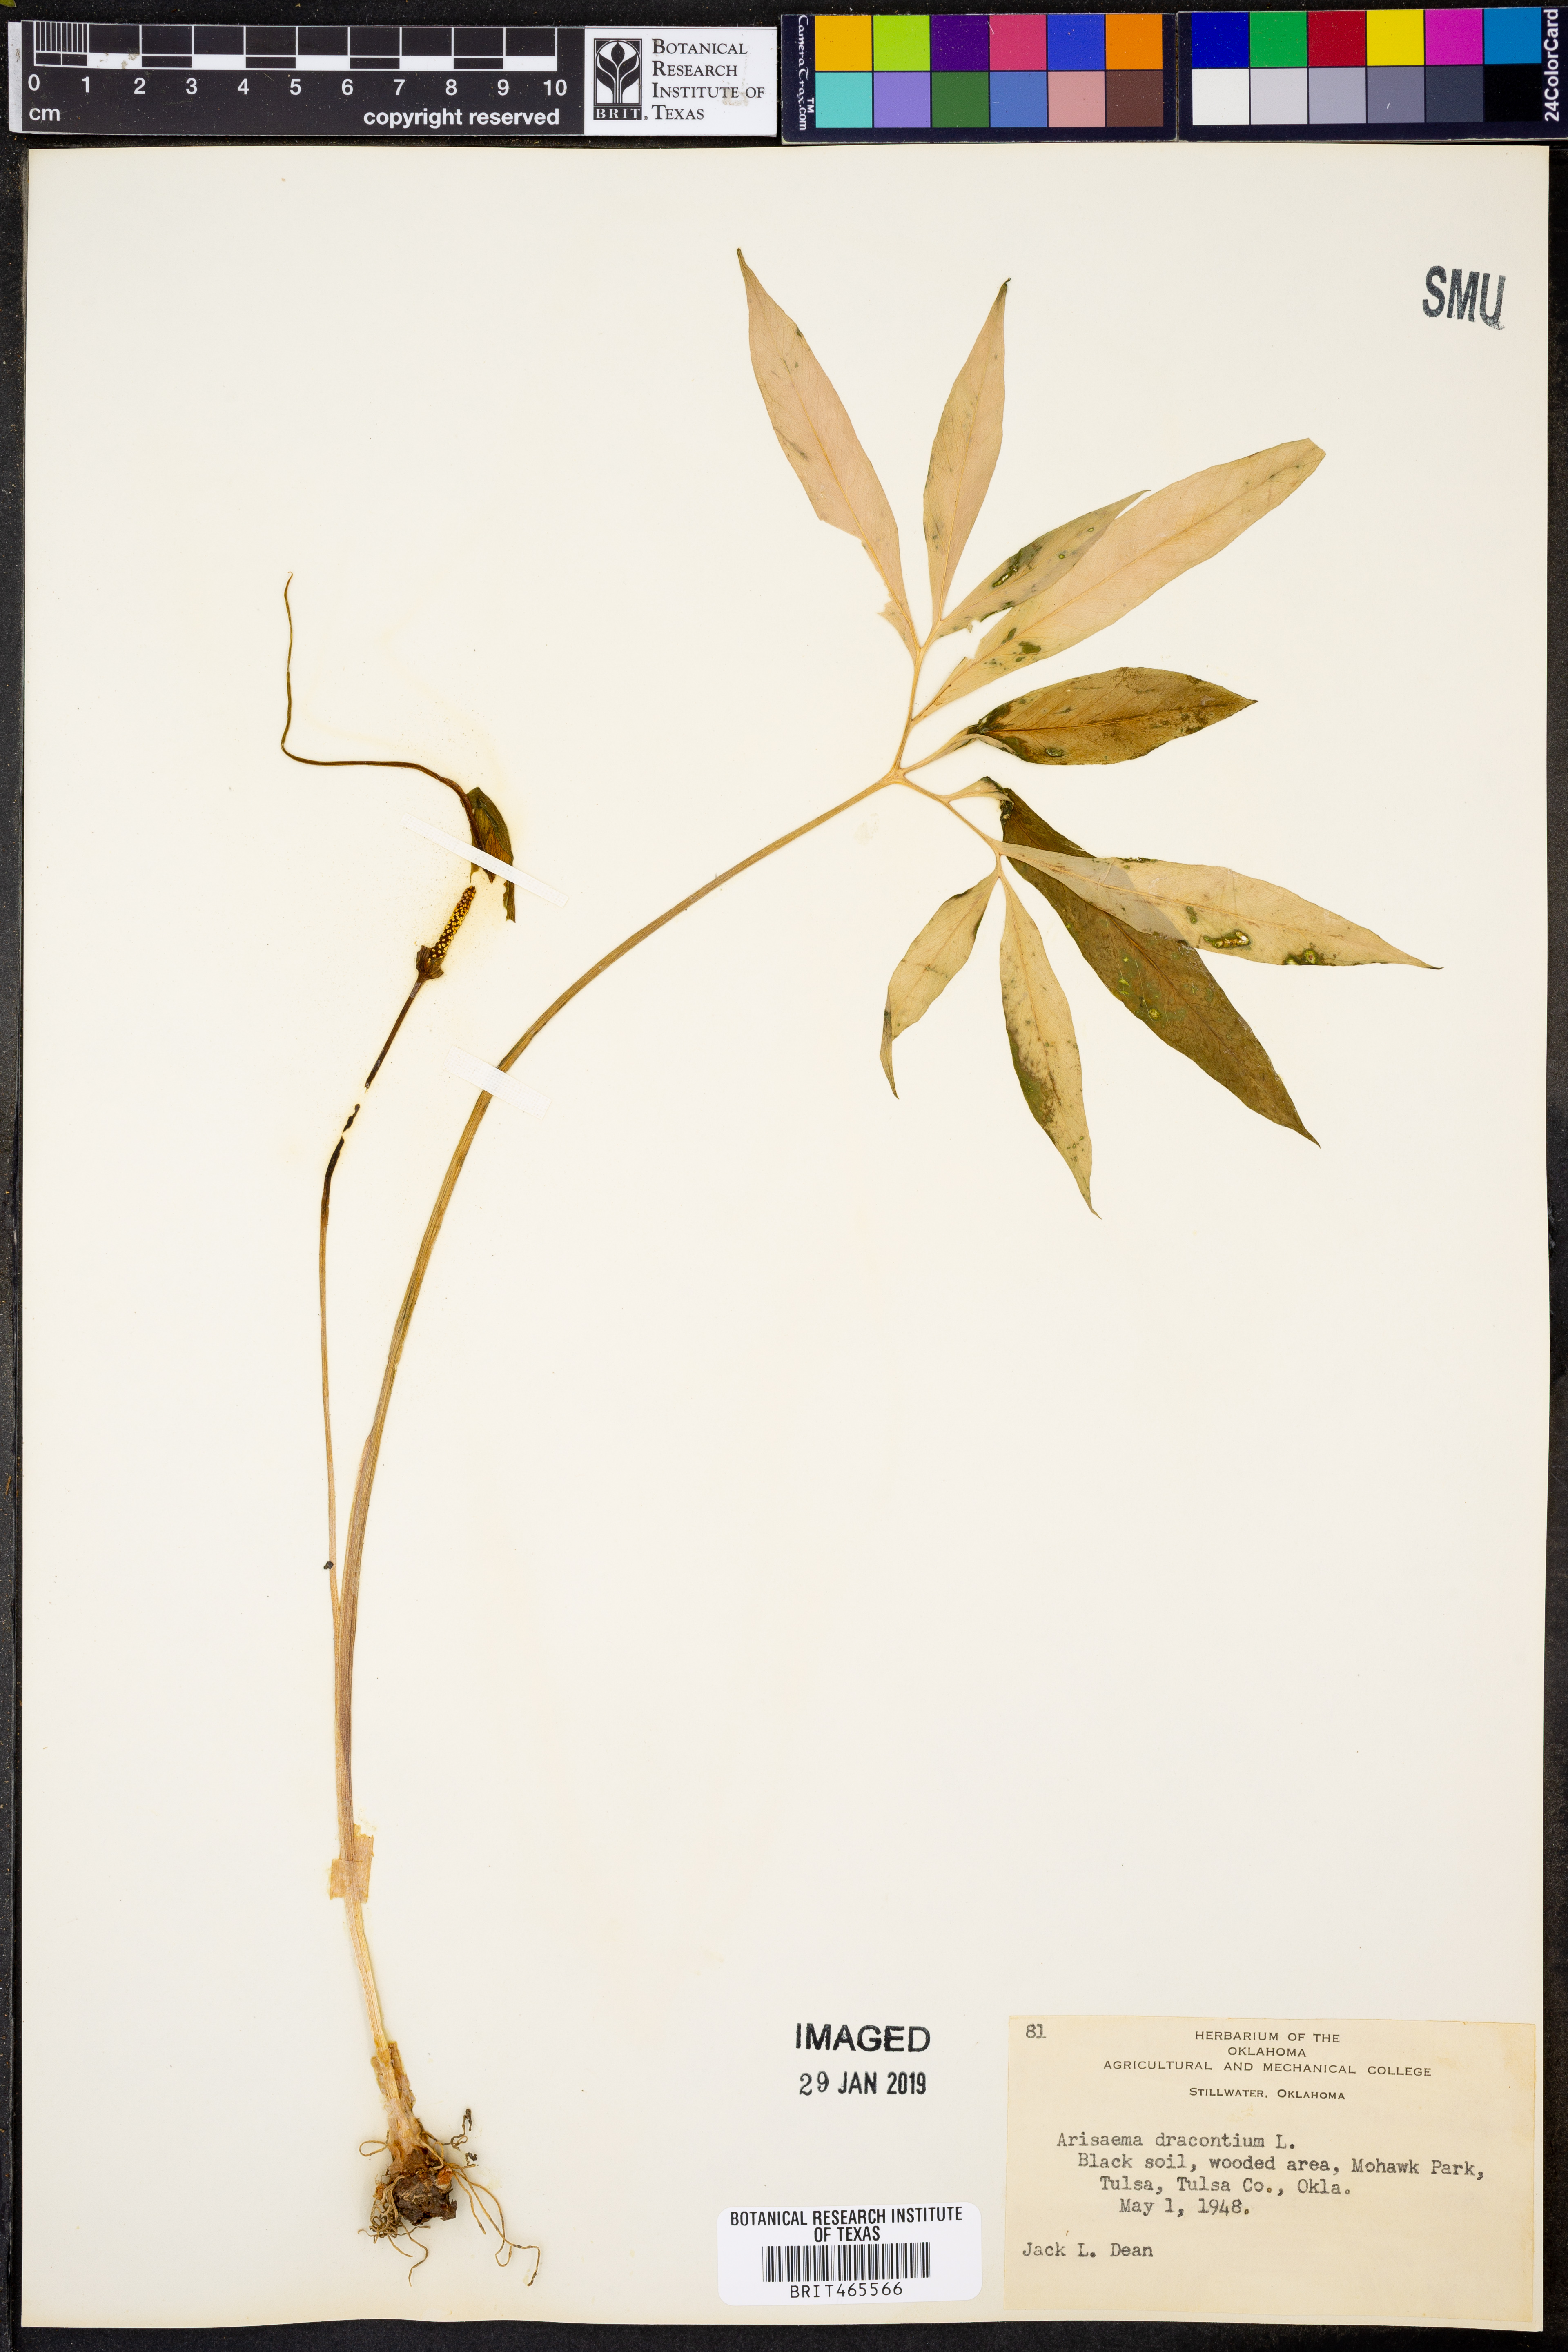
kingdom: Plantae
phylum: Tracheophyta
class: Liliopsida
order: Alismatales
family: Araceae
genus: Arisaema
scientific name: Arisaema dracontium
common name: Dragon-arum
